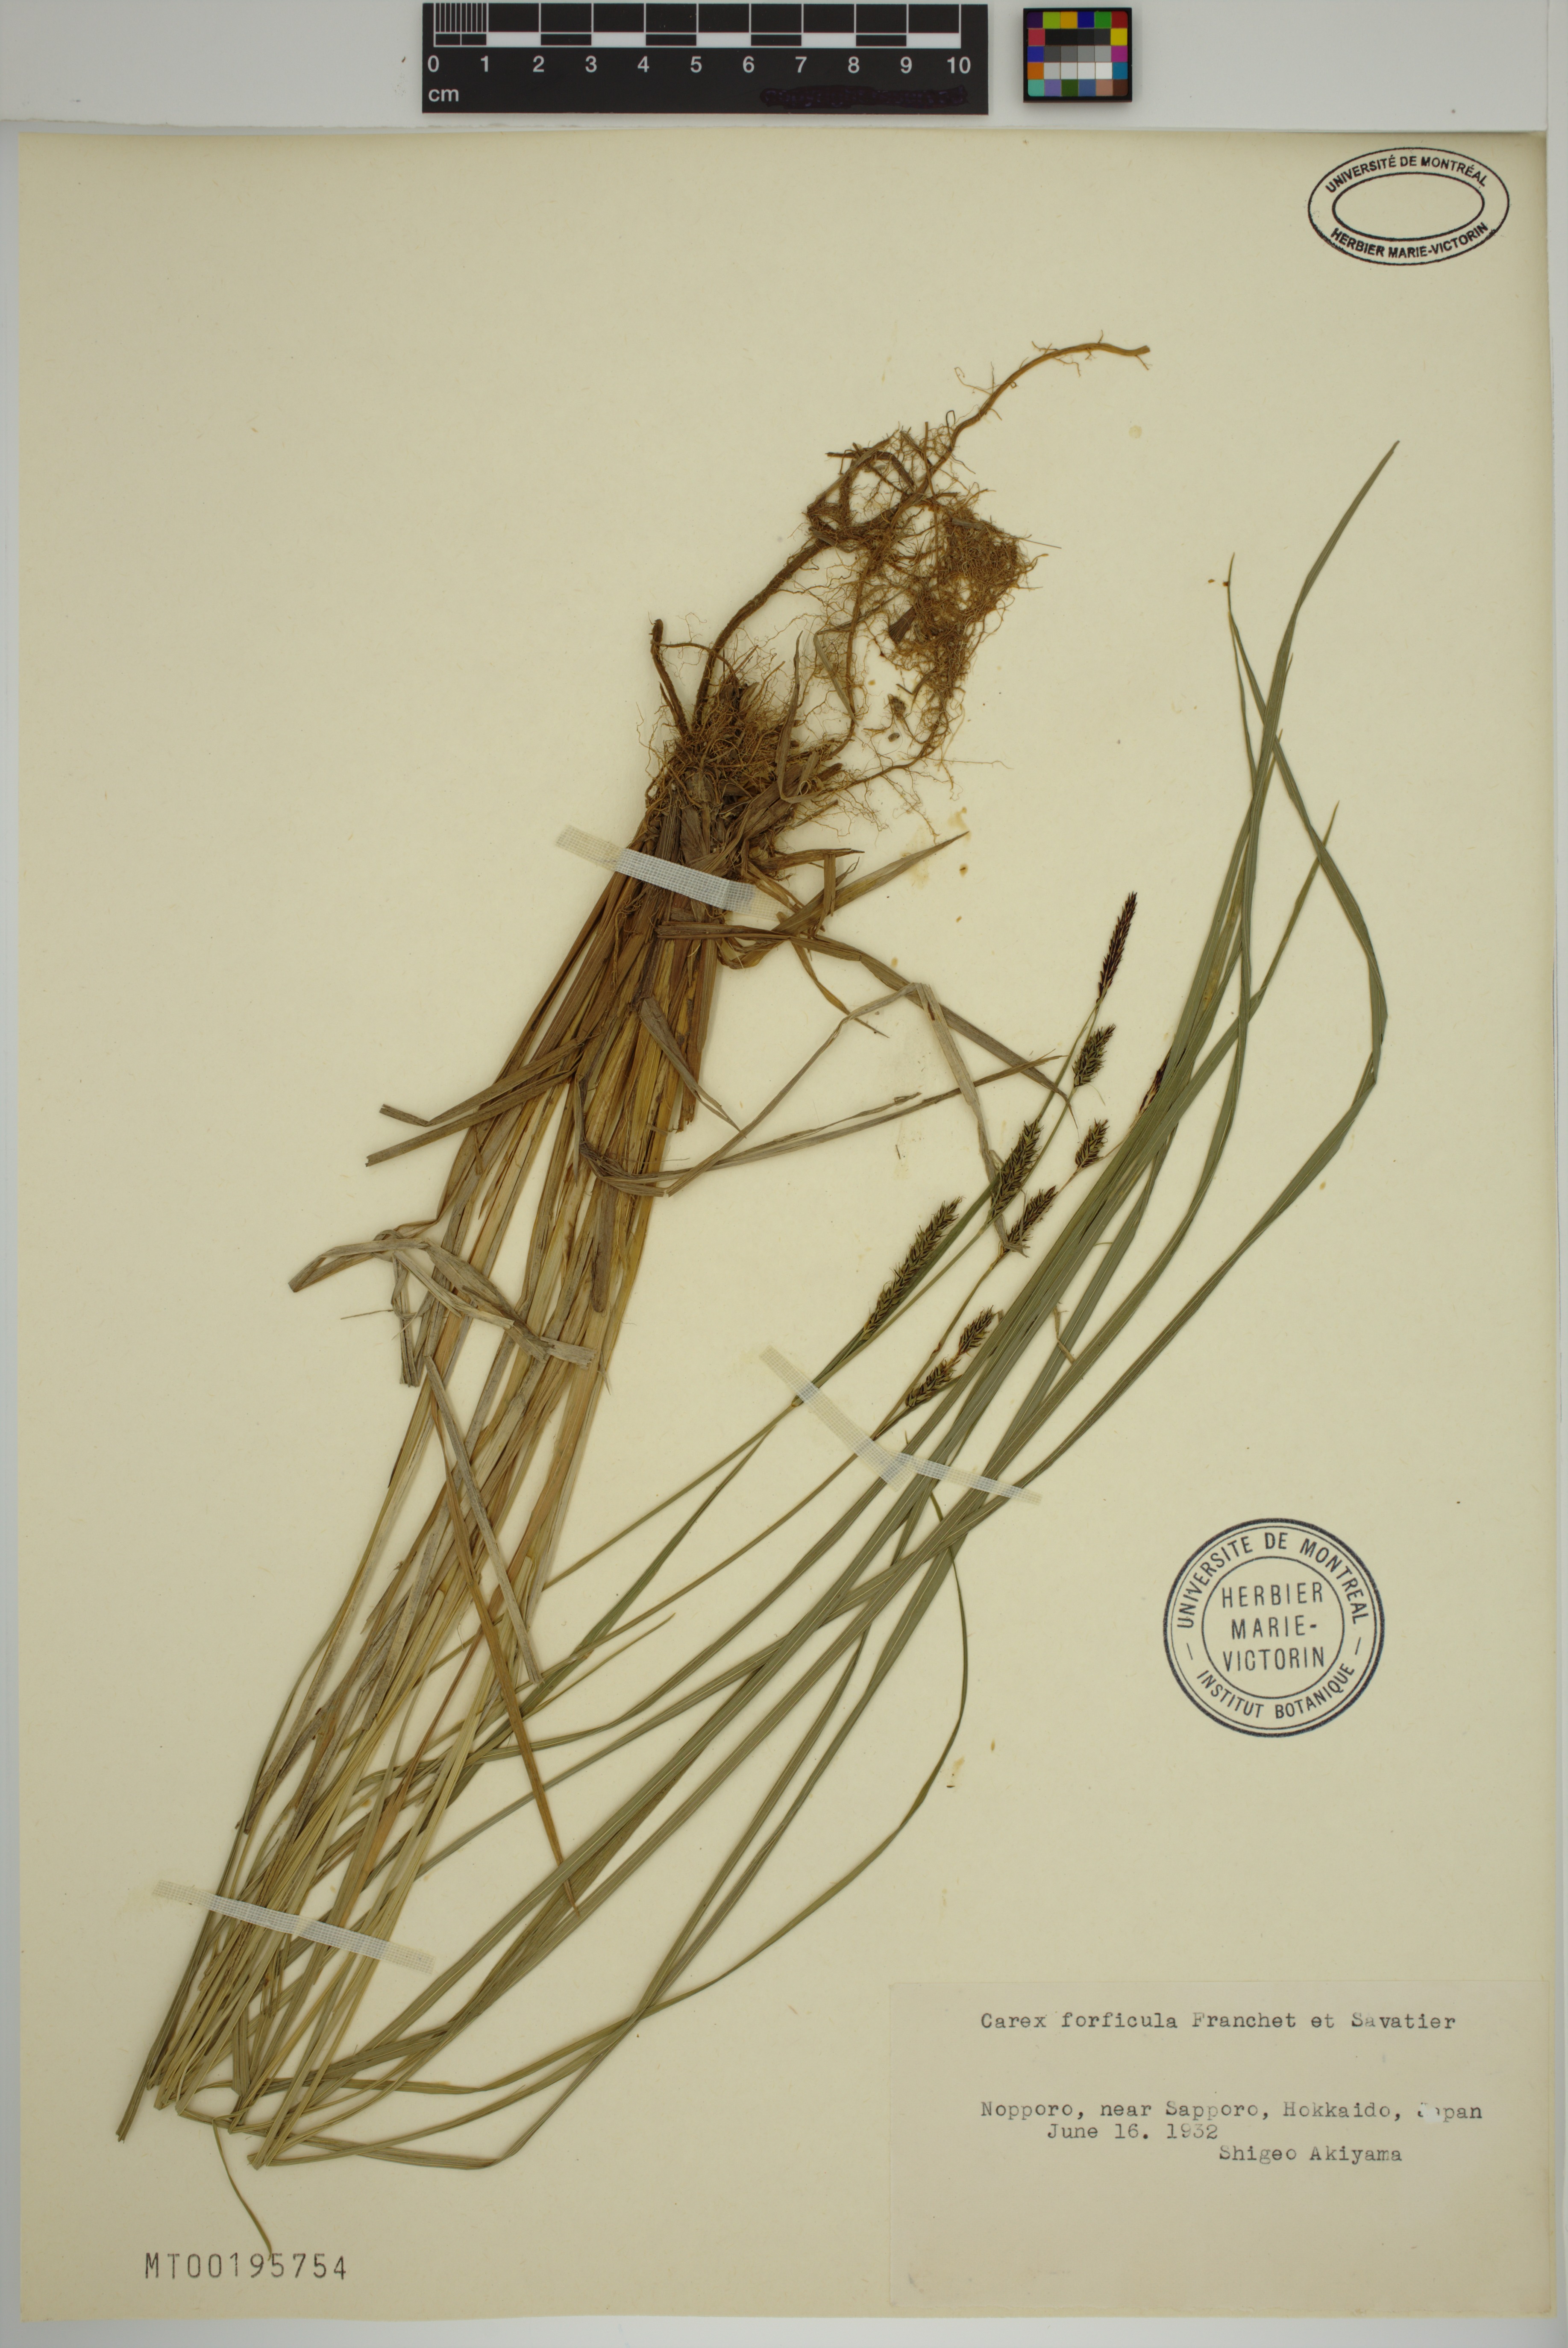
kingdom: Plantae
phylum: Tracheophyta
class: Liliopsida
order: Poales
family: Cyperaceae
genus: Carex
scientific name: Carex forficula
